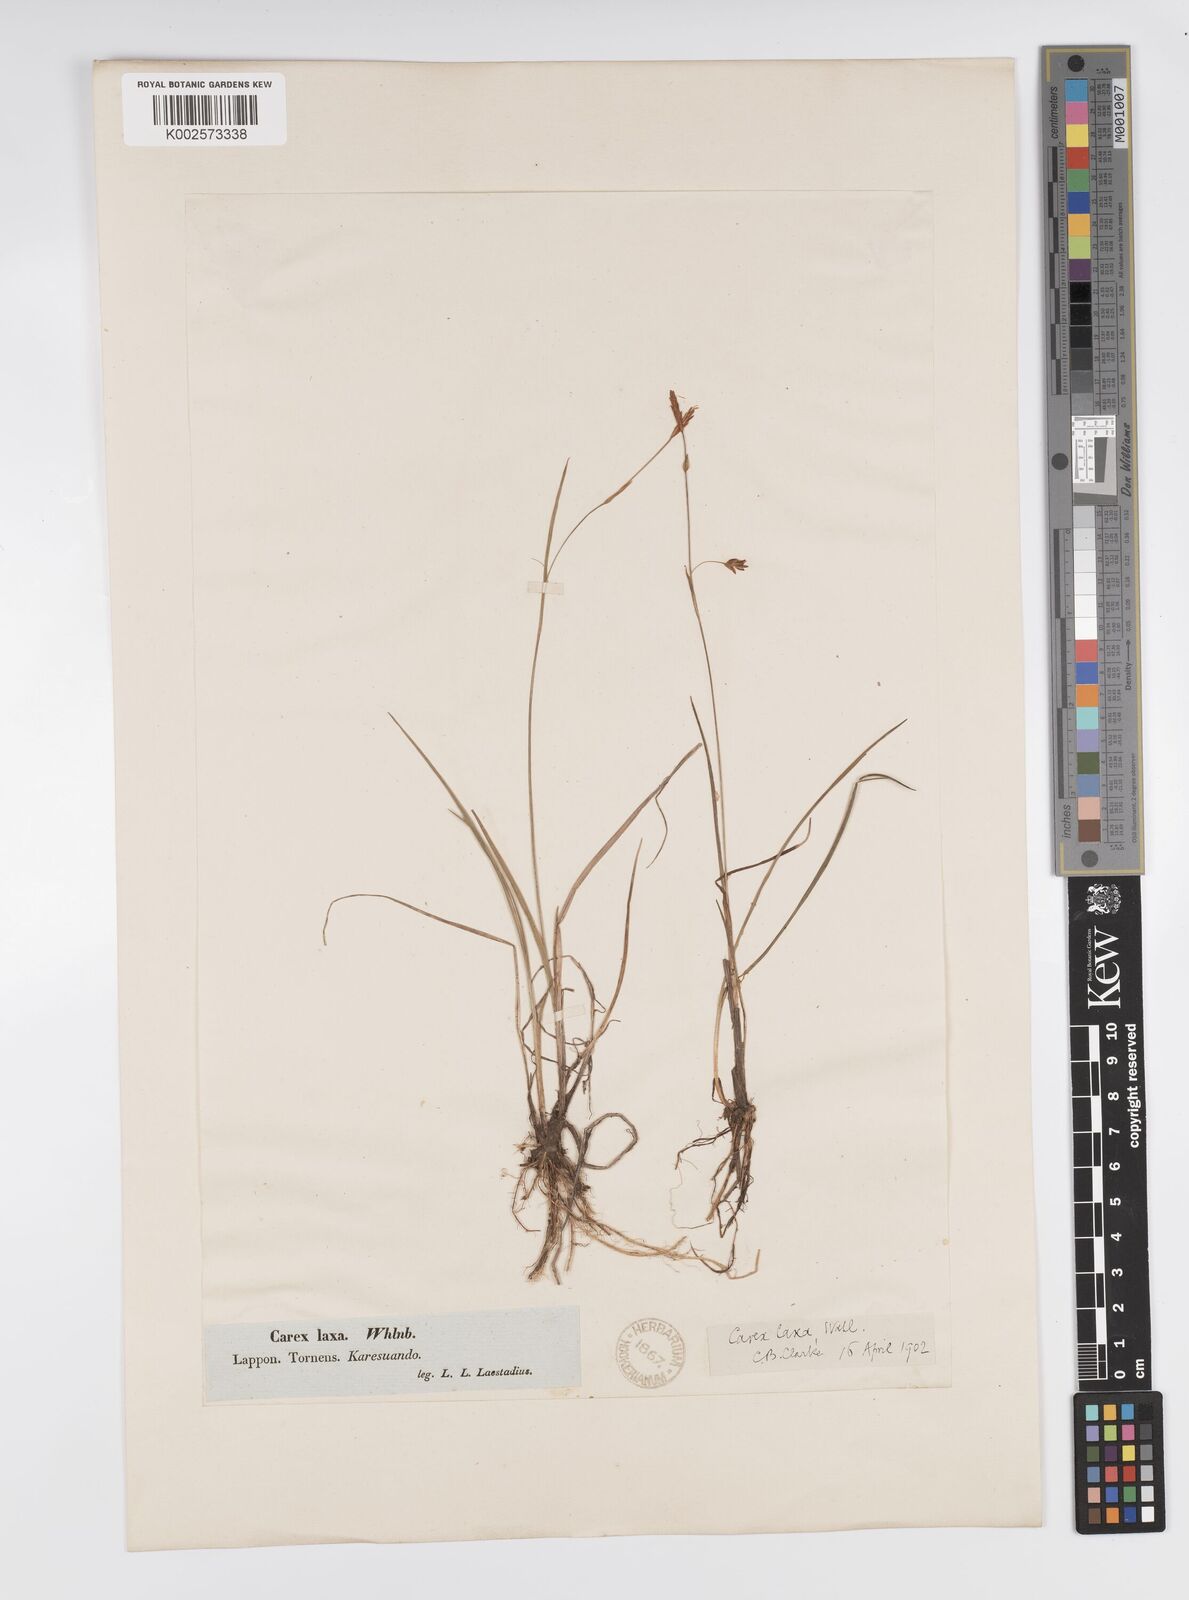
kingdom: Plantae
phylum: Tracheophyta
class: Liliopsida
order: Poales
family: Cyperaceae
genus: Carex
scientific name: Carex laxa
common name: Weak sedge
